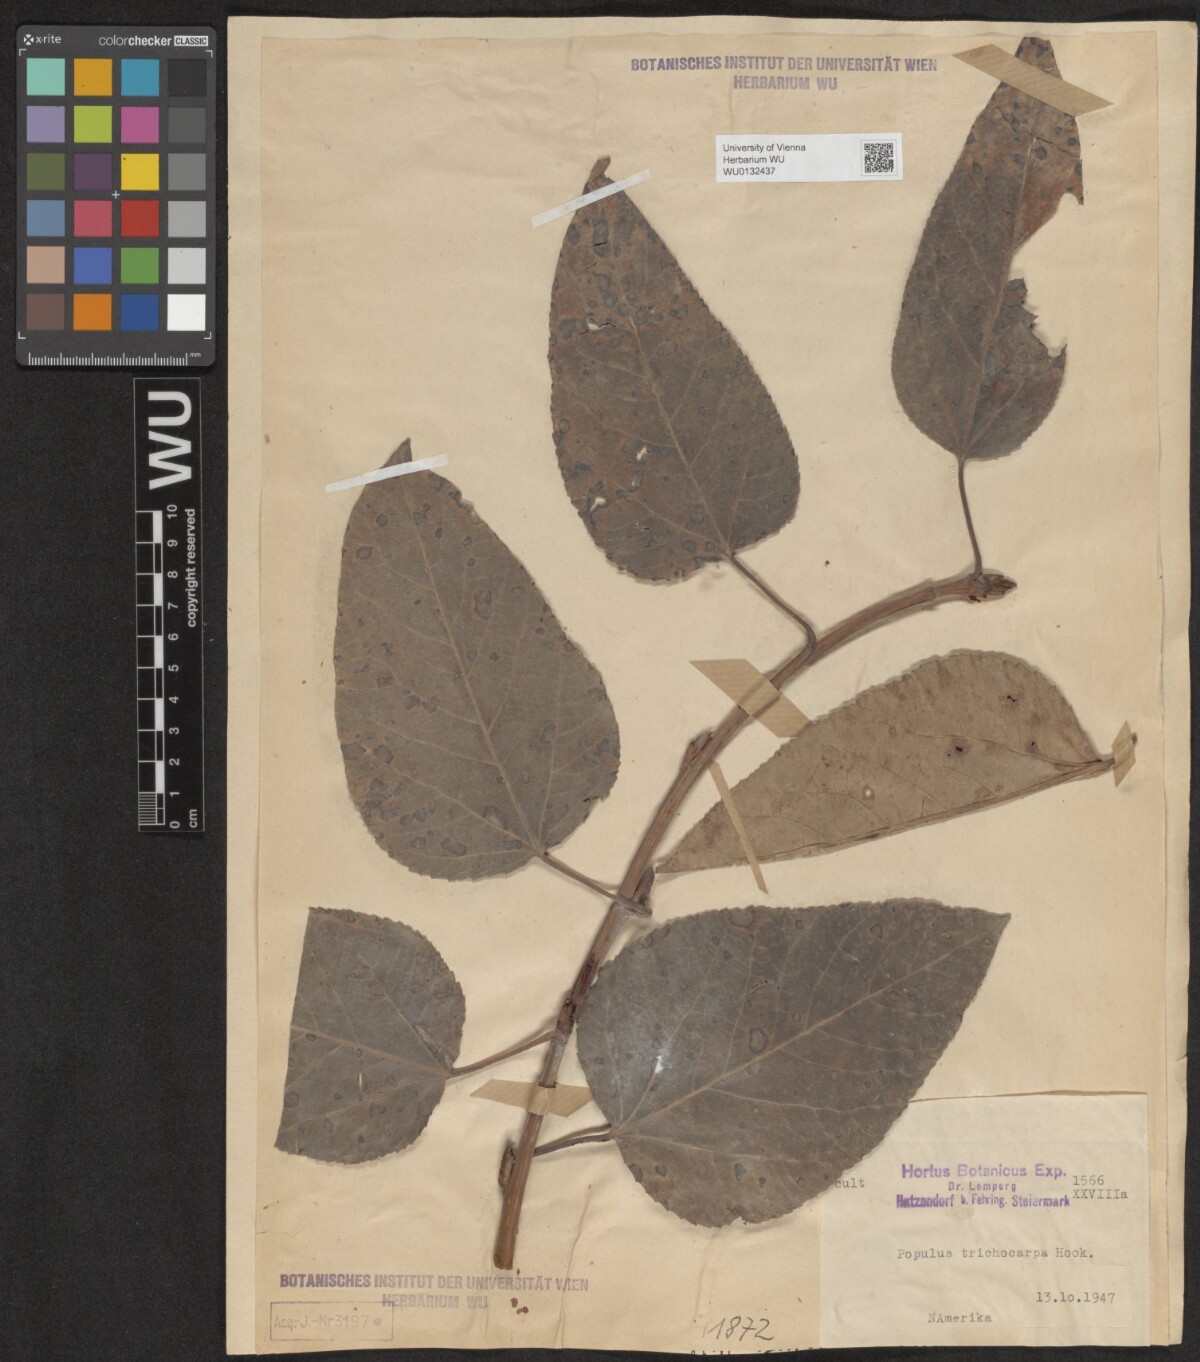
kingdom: Plantae
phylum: Tracheophyta
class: Magnoliopsida
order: Malpighiales
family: Salicaceae
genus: Populus
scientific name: Populus trichocarpa
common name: Black cottonwood
